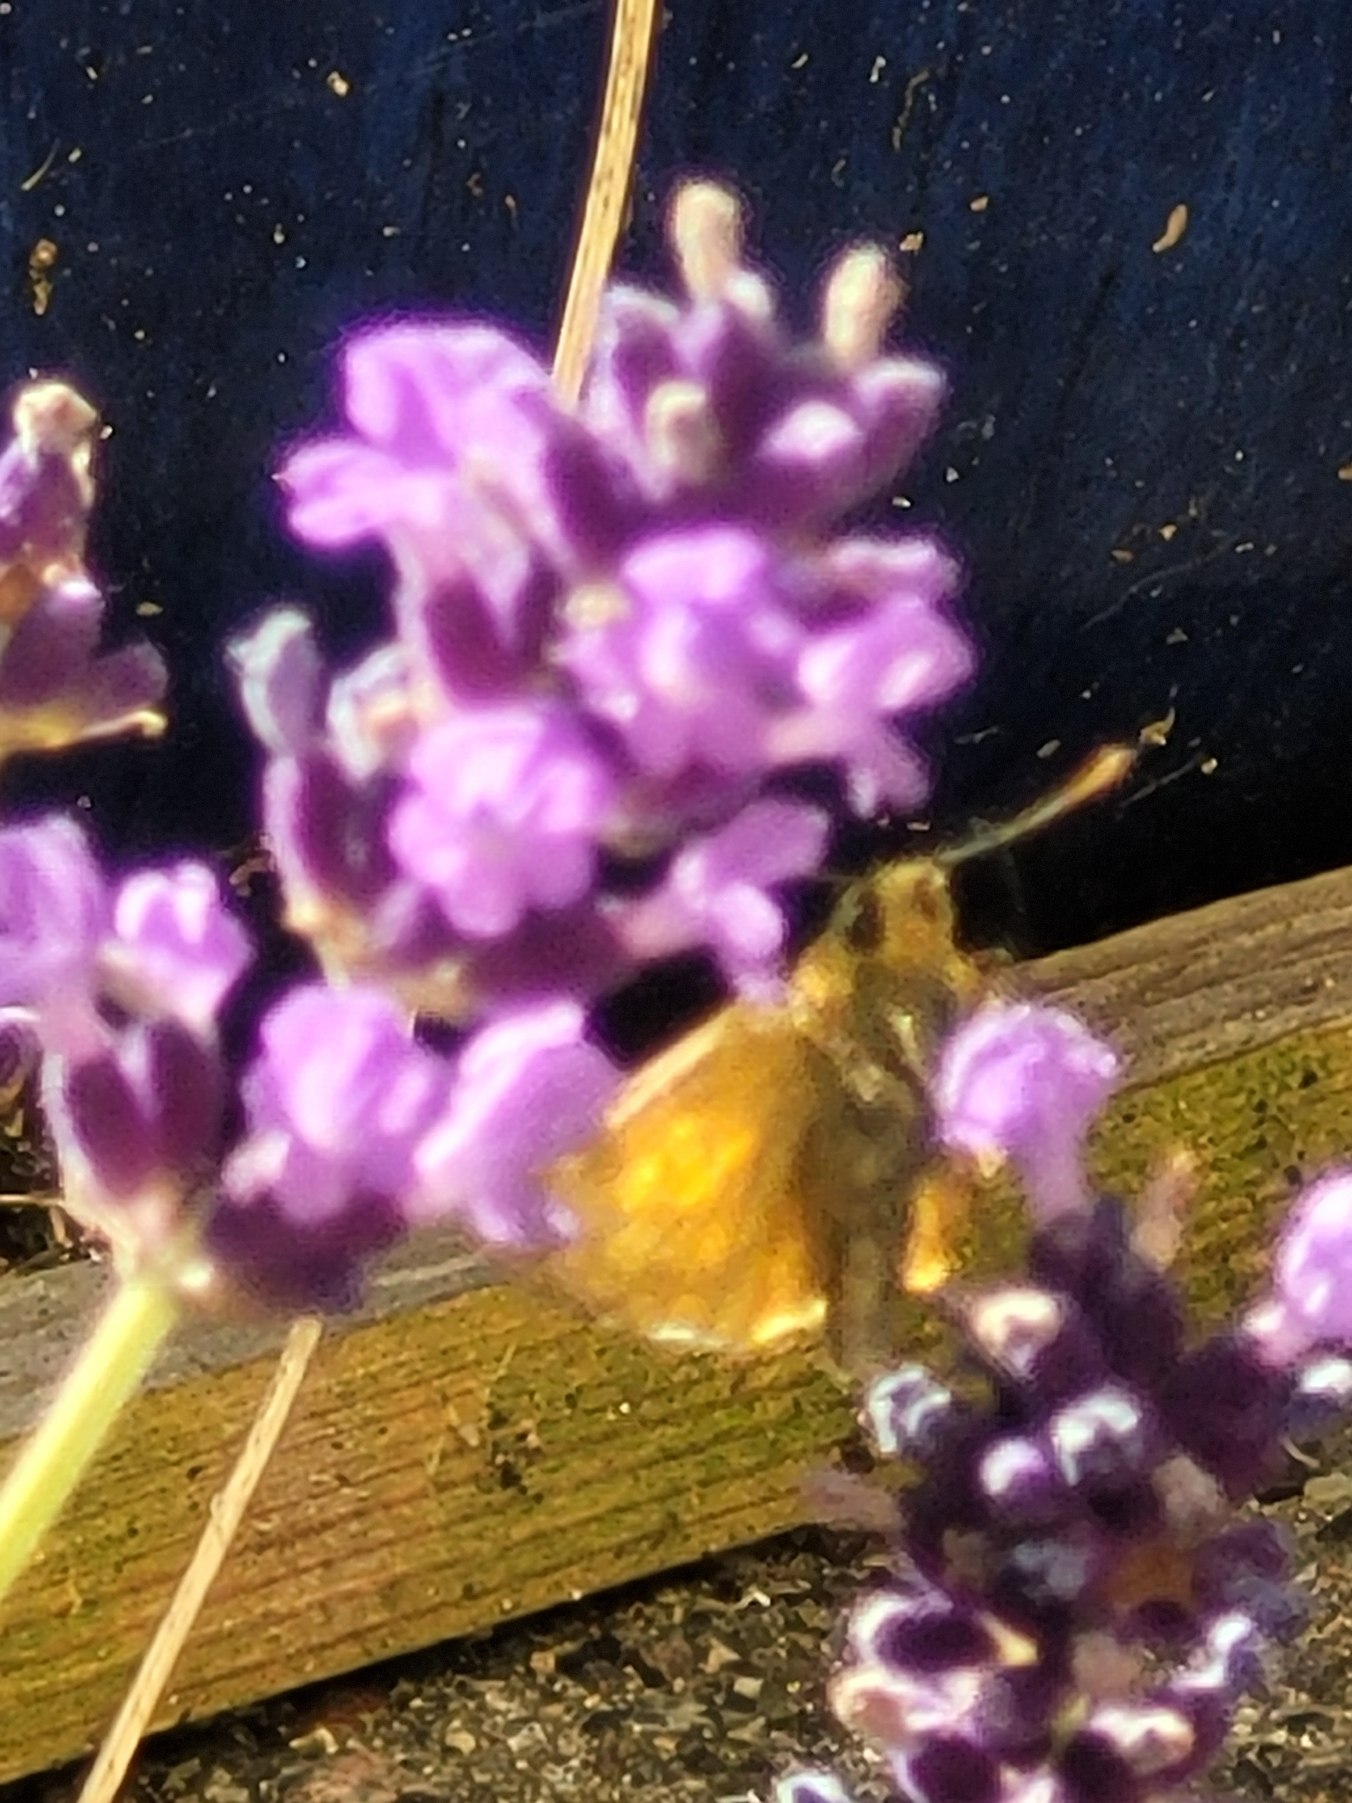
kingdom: Animalia
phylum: Arthropoda
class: Insecta
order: Lepidoptera
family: Hesperiidae
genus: Ochlodes
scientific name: Ochlodes venata
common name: Stor bredpande
